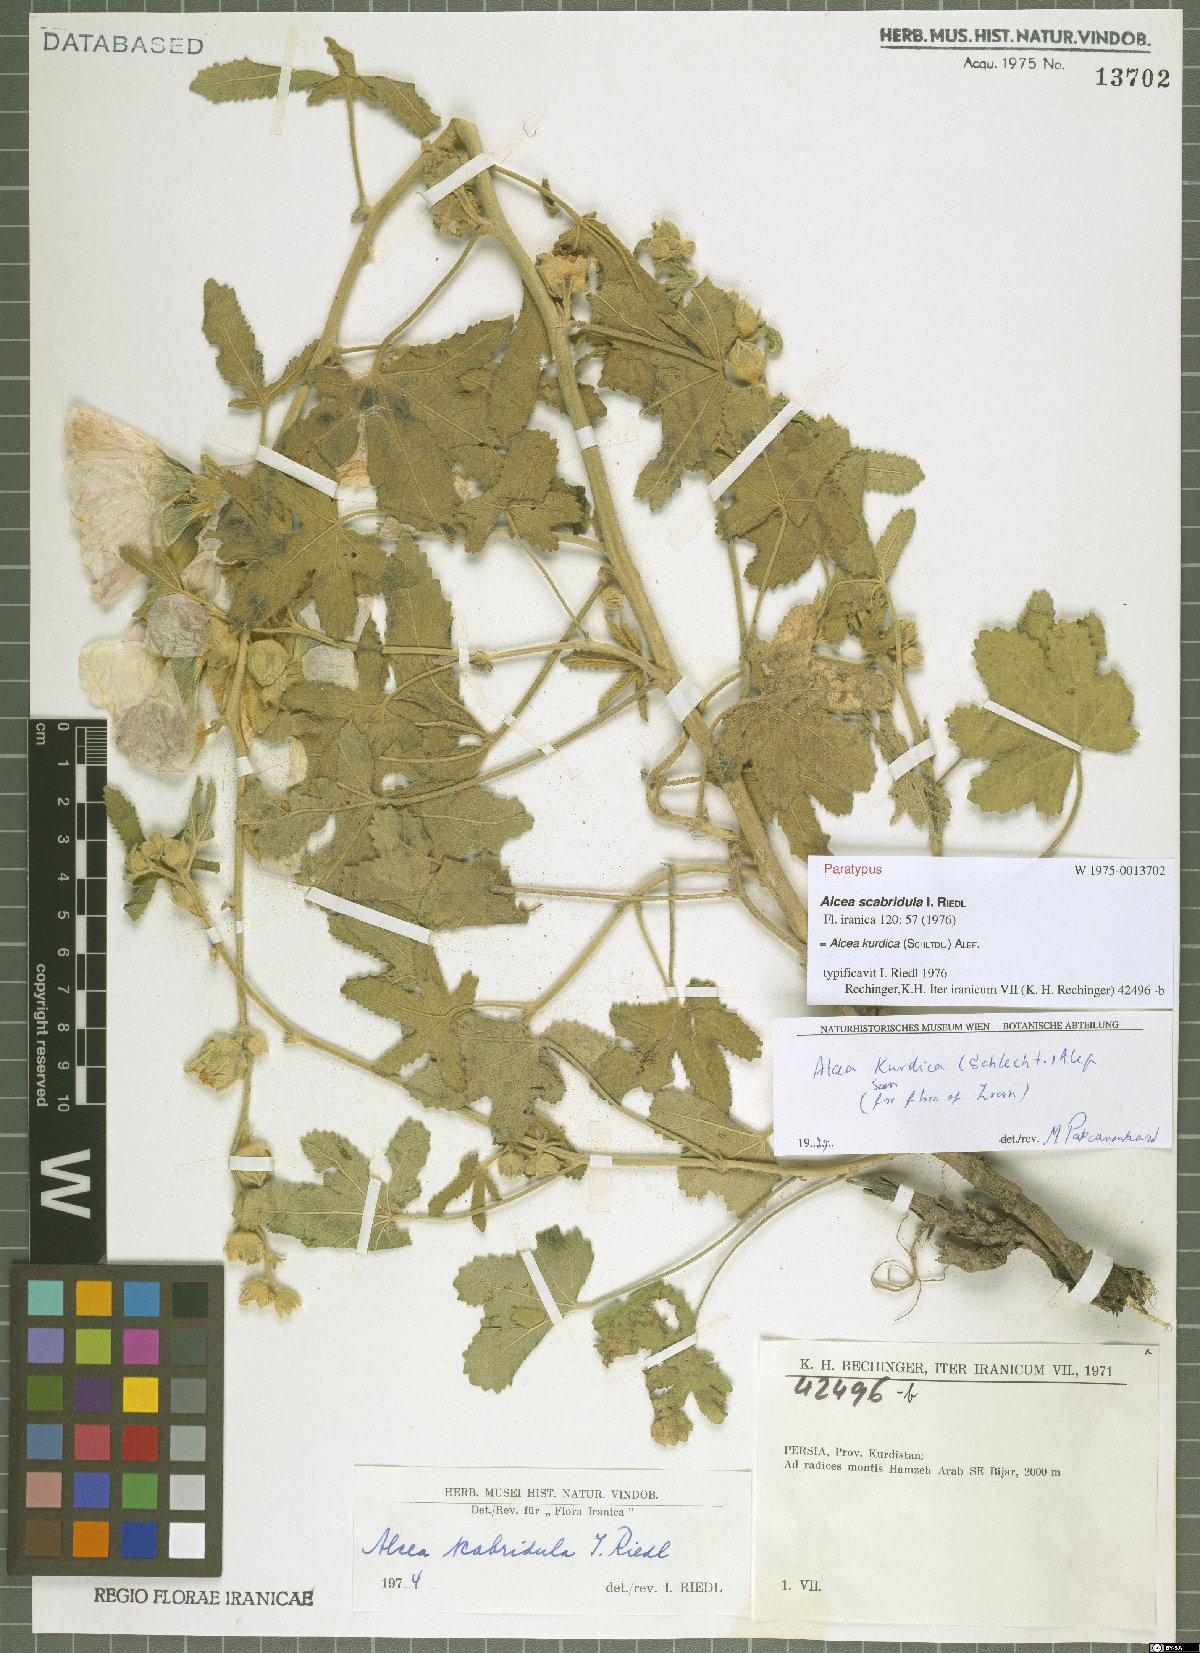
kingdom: Plantae
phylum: Tracheophyta
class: Magnoliopsida
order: Malvales
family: Malvaceae
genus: Alcea
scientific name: Alcea kurdica
